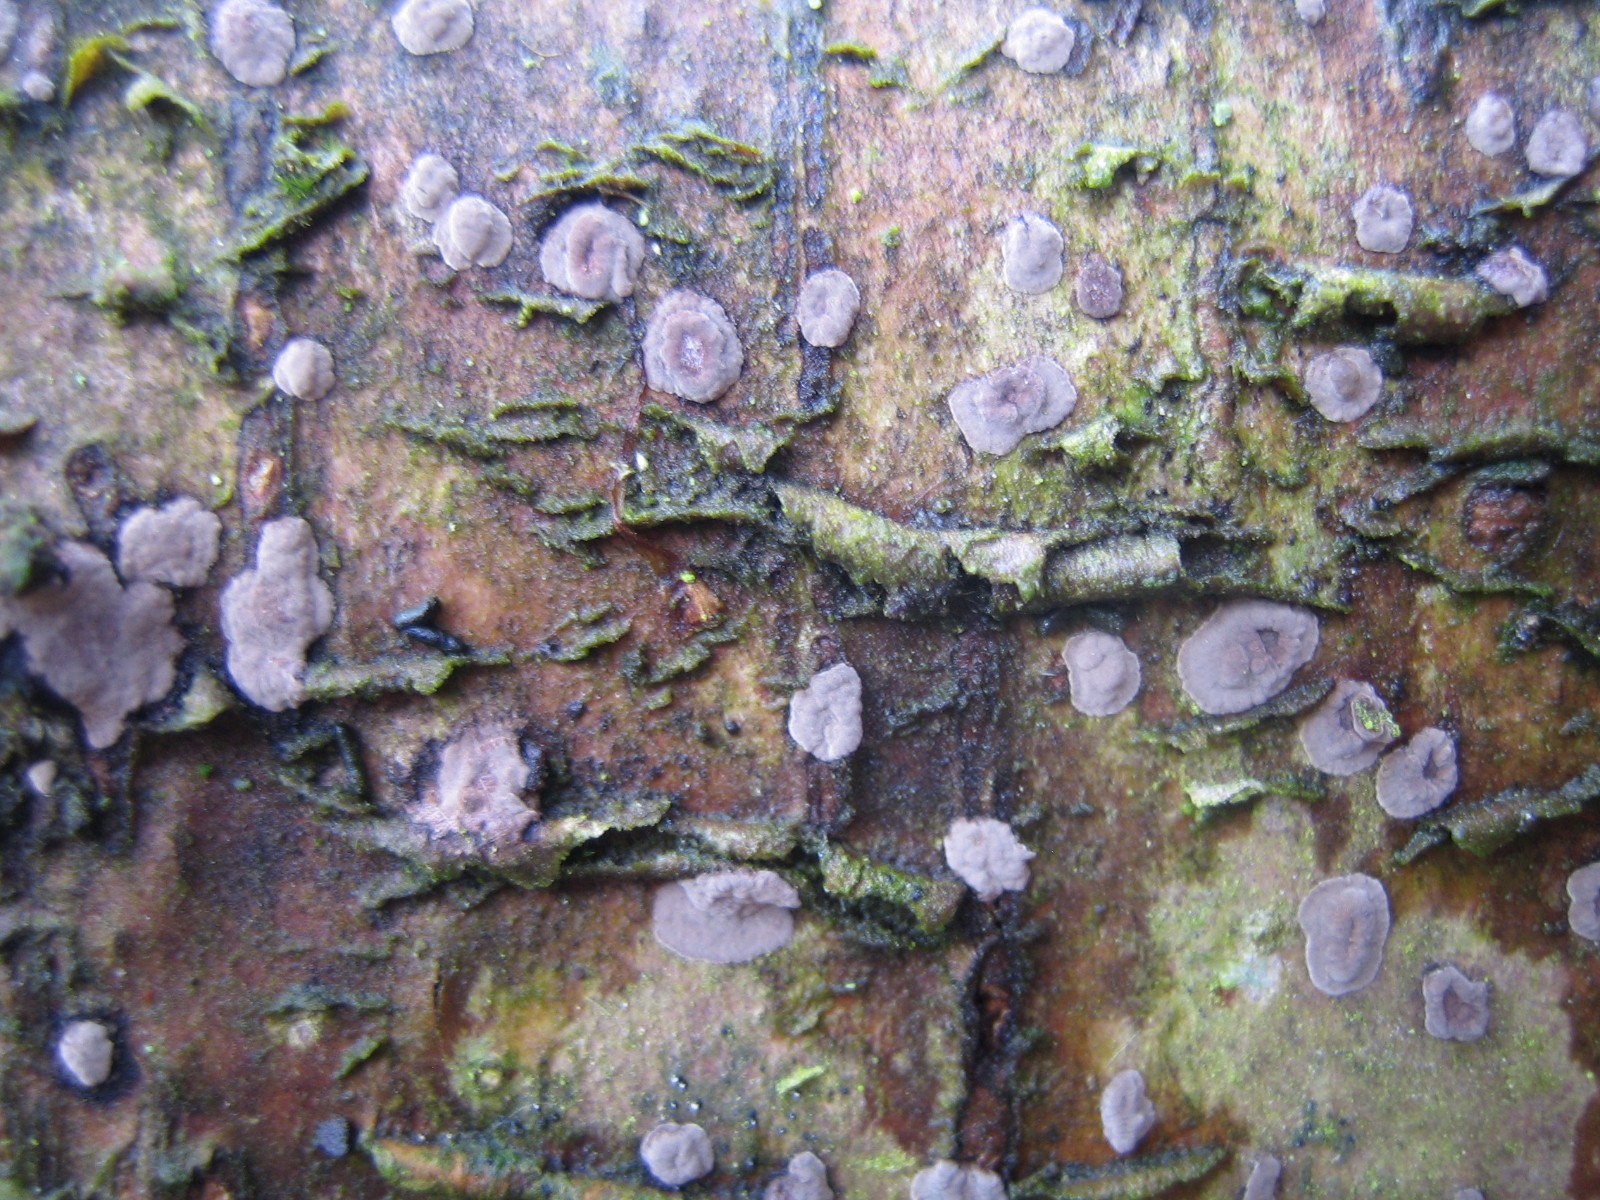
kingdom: Fungi
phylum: Basidiomycota
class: Agaricomycetes
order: Russulales
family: Peniophoraceae
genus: Peniophora
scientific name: Peniophora
